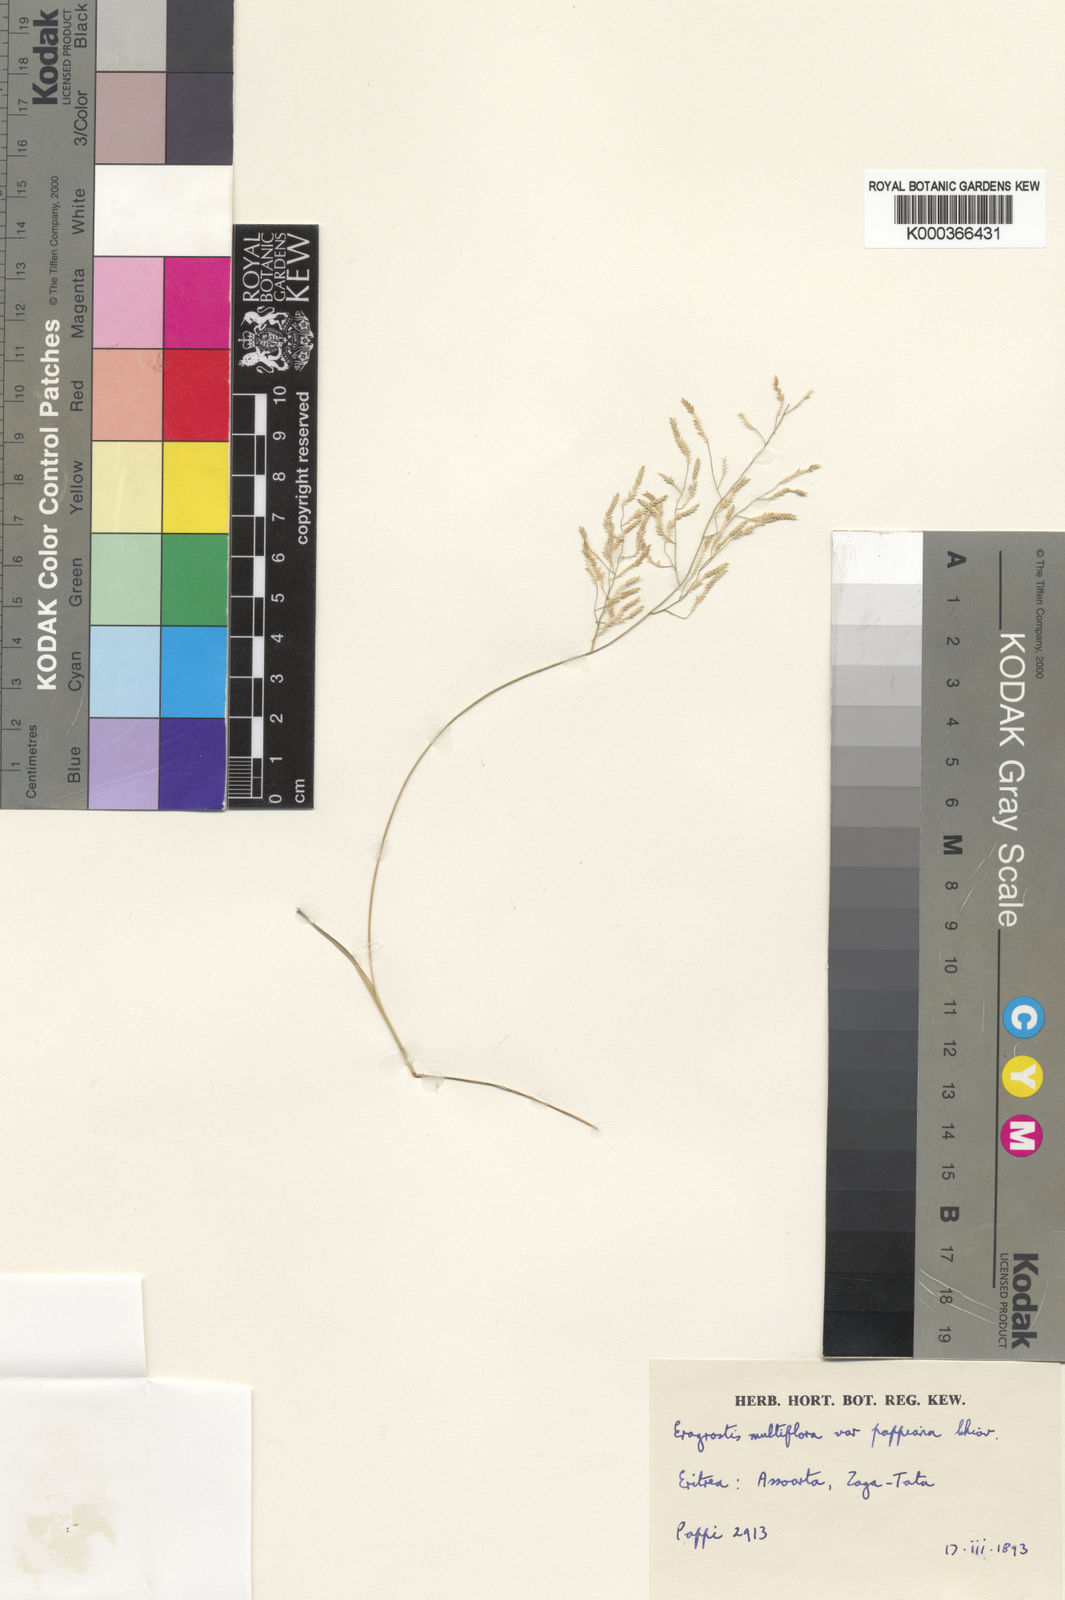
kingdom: Plantae
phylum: Tracheophyta
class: Liliopsida
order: Poales
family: Poaceae
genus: Eragrostis
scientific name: Eragrostis minor
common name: Small love-grass
